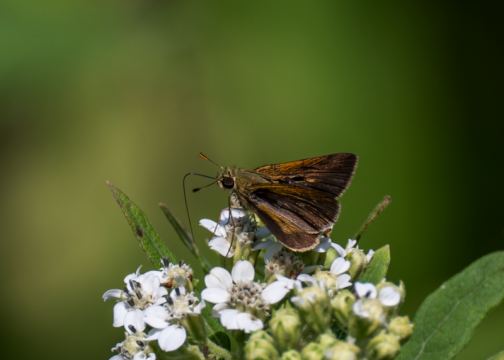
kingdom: Animalia
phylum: Arthropoda
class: Insecta
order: Lepidoptera
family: Hesperiidae
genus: Polites
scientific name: Polites egeremet
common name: Northern Broken-Dash
